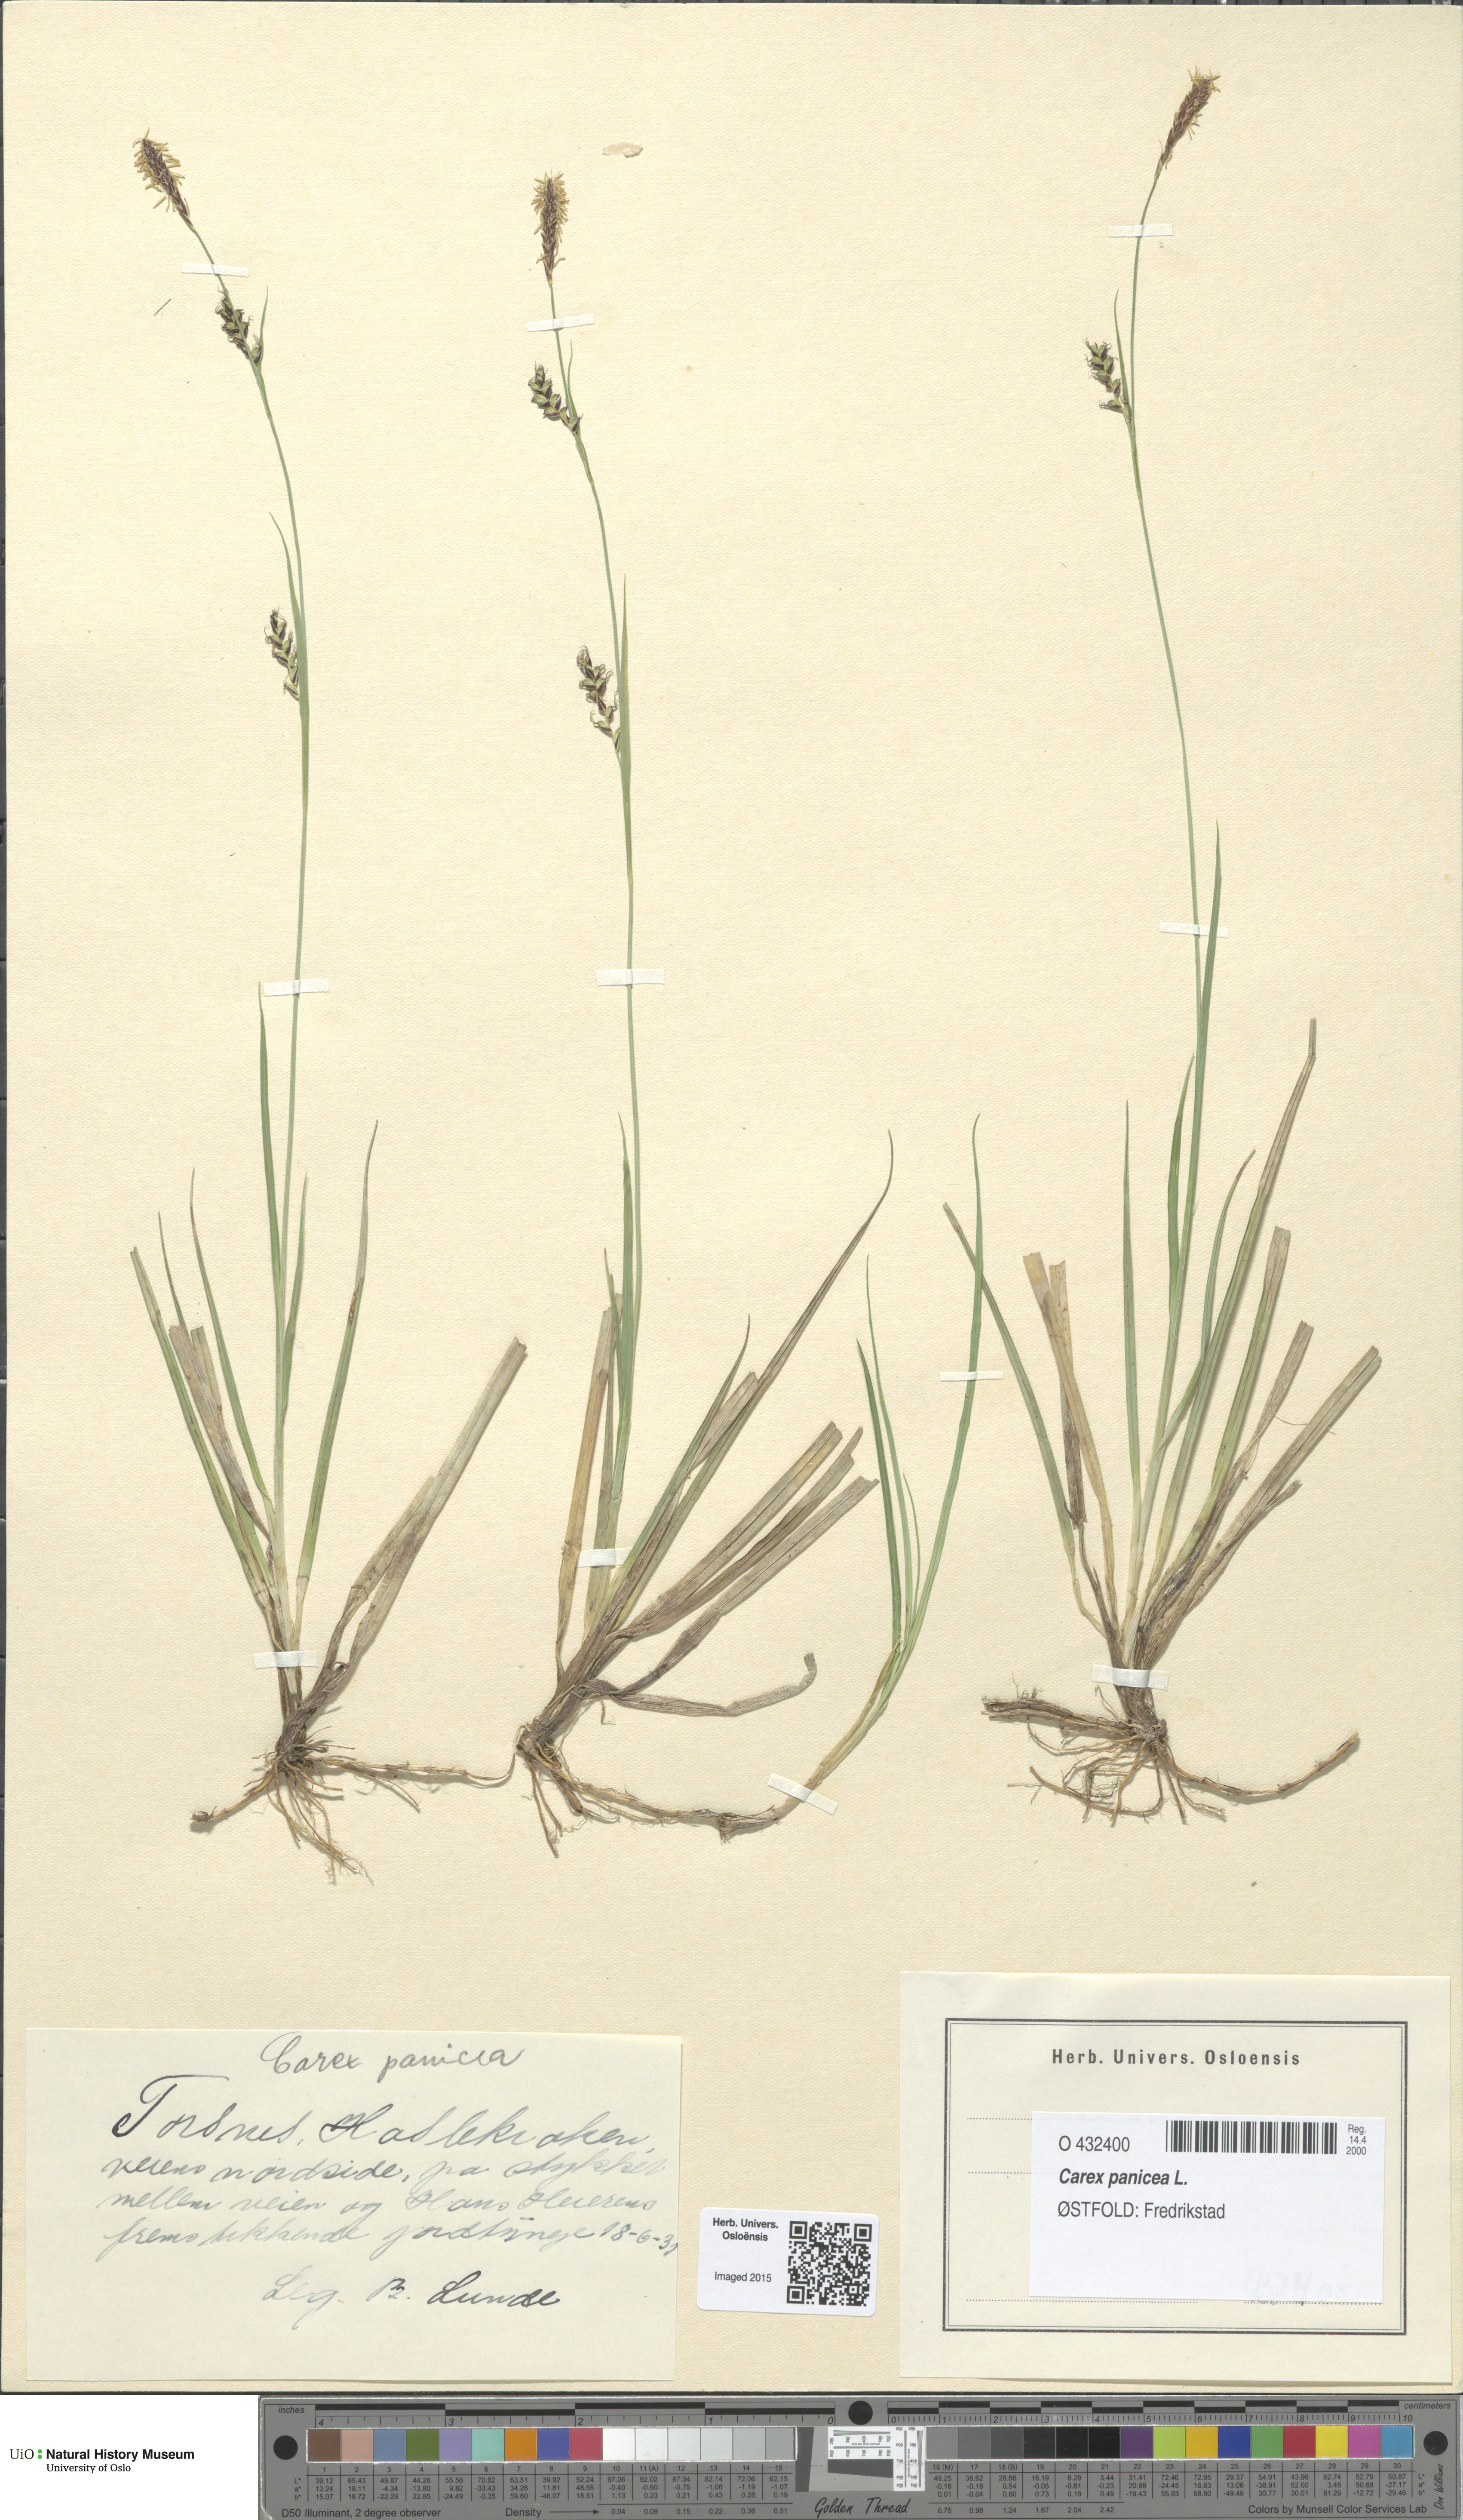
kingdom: Plantae
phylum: Tracheophyta
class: Liliopsida
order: Poales
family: Cyperaceae
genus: Carex
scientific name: Carex panicea
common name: Carnation sedge
